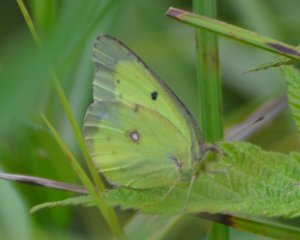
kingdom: Animalia
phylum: Arthropoda
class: Insecta
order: Lepidoptera
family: Pieridae
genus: Colias
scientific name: Colias philodice
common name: Clouded Sulphur
